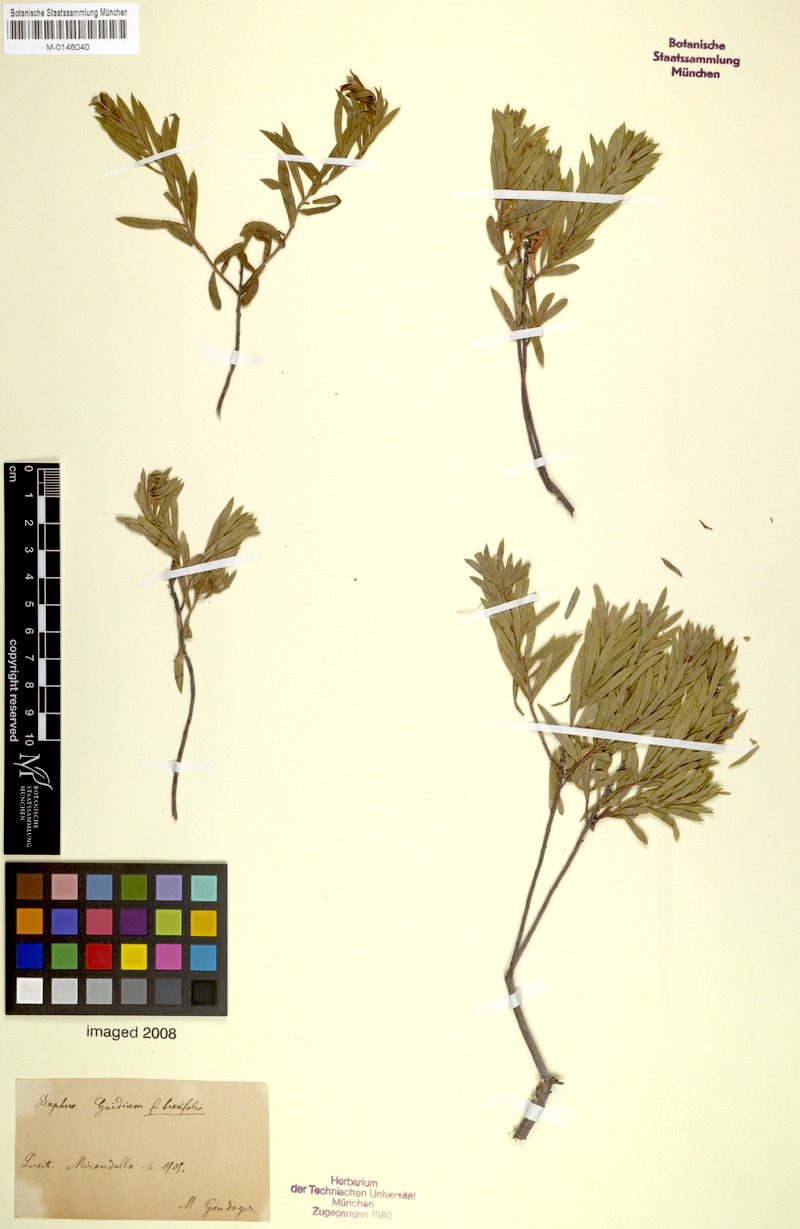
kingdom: Plantae
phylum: Tracheophyta
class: Magnoliopsida
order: Malvales
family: Thymelaeaceae
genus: Daphne
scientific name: Daphne gnidium
